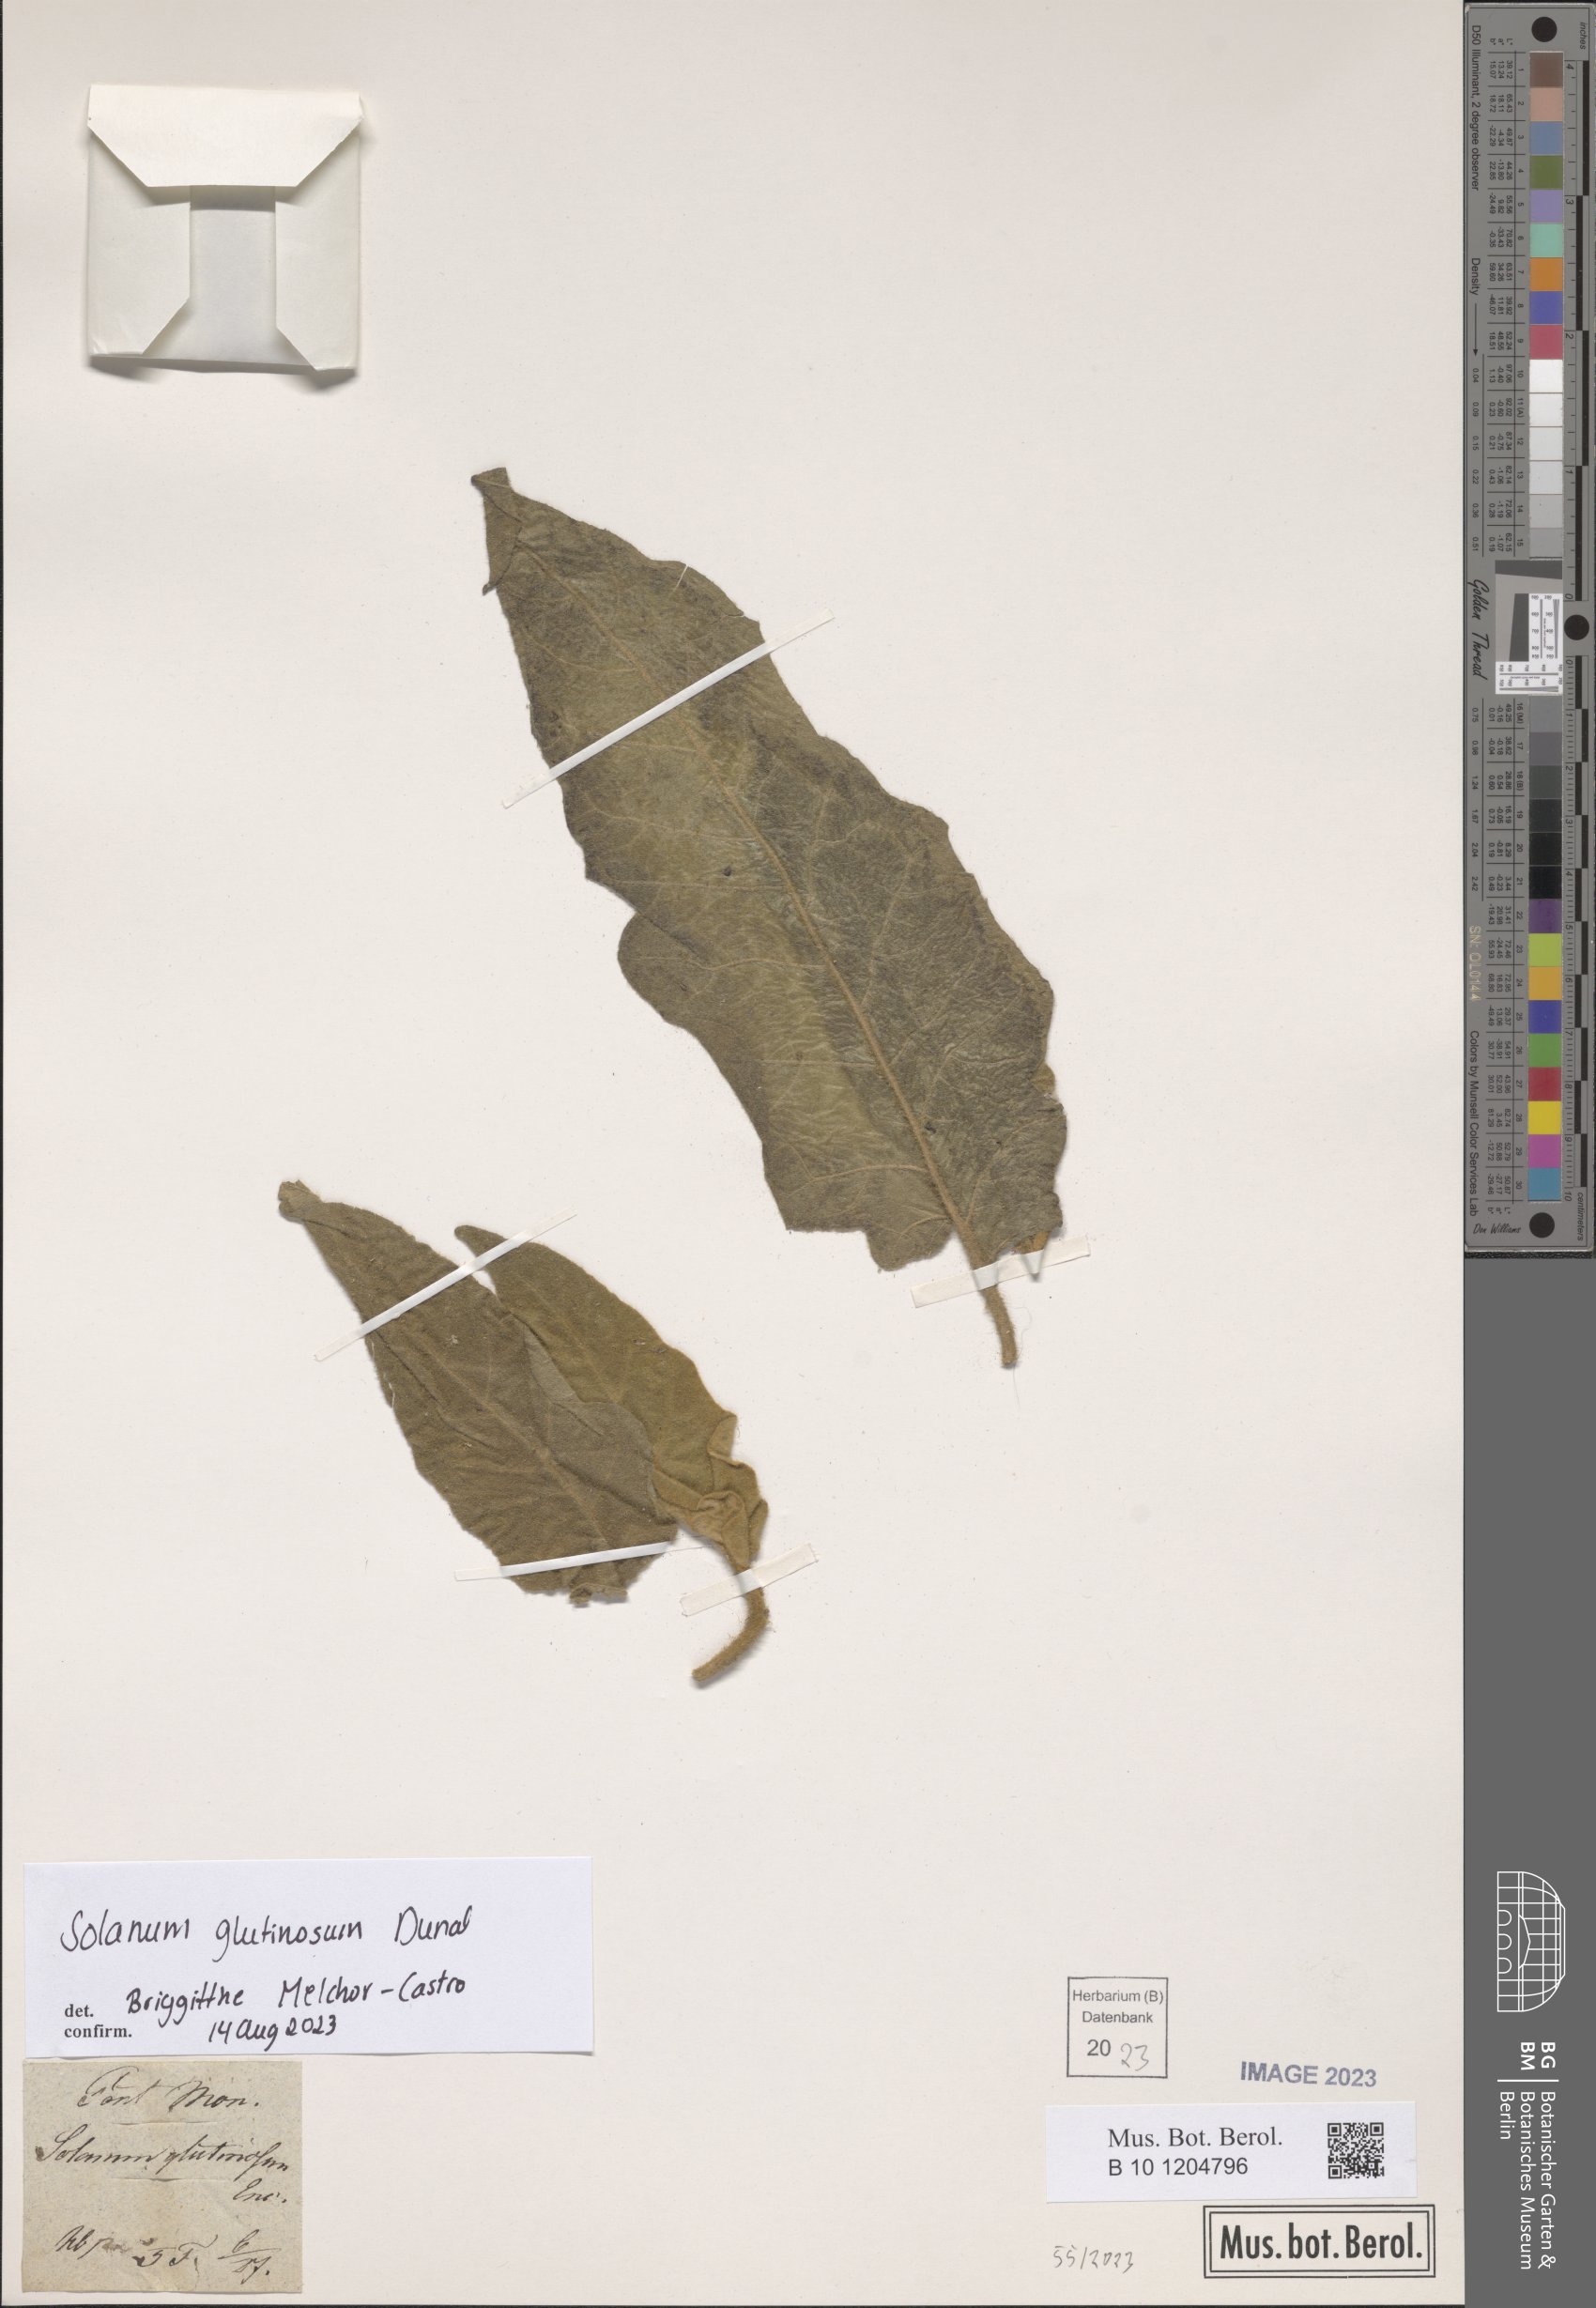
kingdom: Plantae
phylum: Tracheophyta
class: Magnoliopsida
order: Solanales
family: Solanaceae
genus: Solanum
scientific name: Solanum glutinosum
